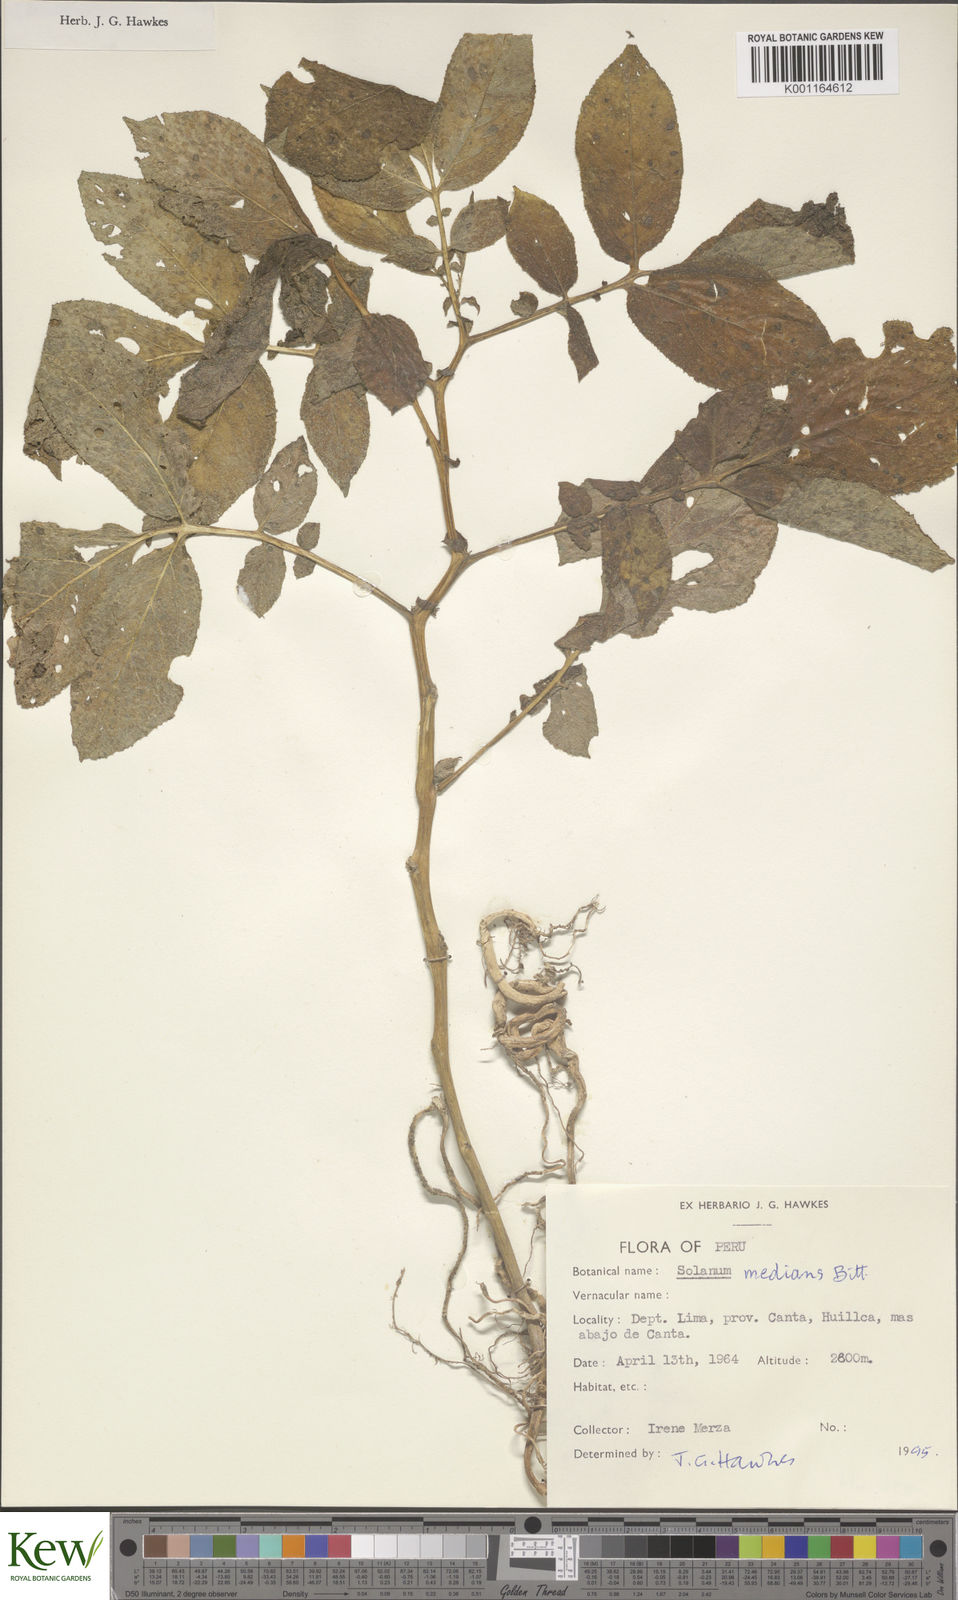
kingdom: Plantae
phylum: Tracheophyta
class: Magnoliopsida
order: Solanales
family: Solanaceae
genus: Solanum
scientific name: Solanum medians
